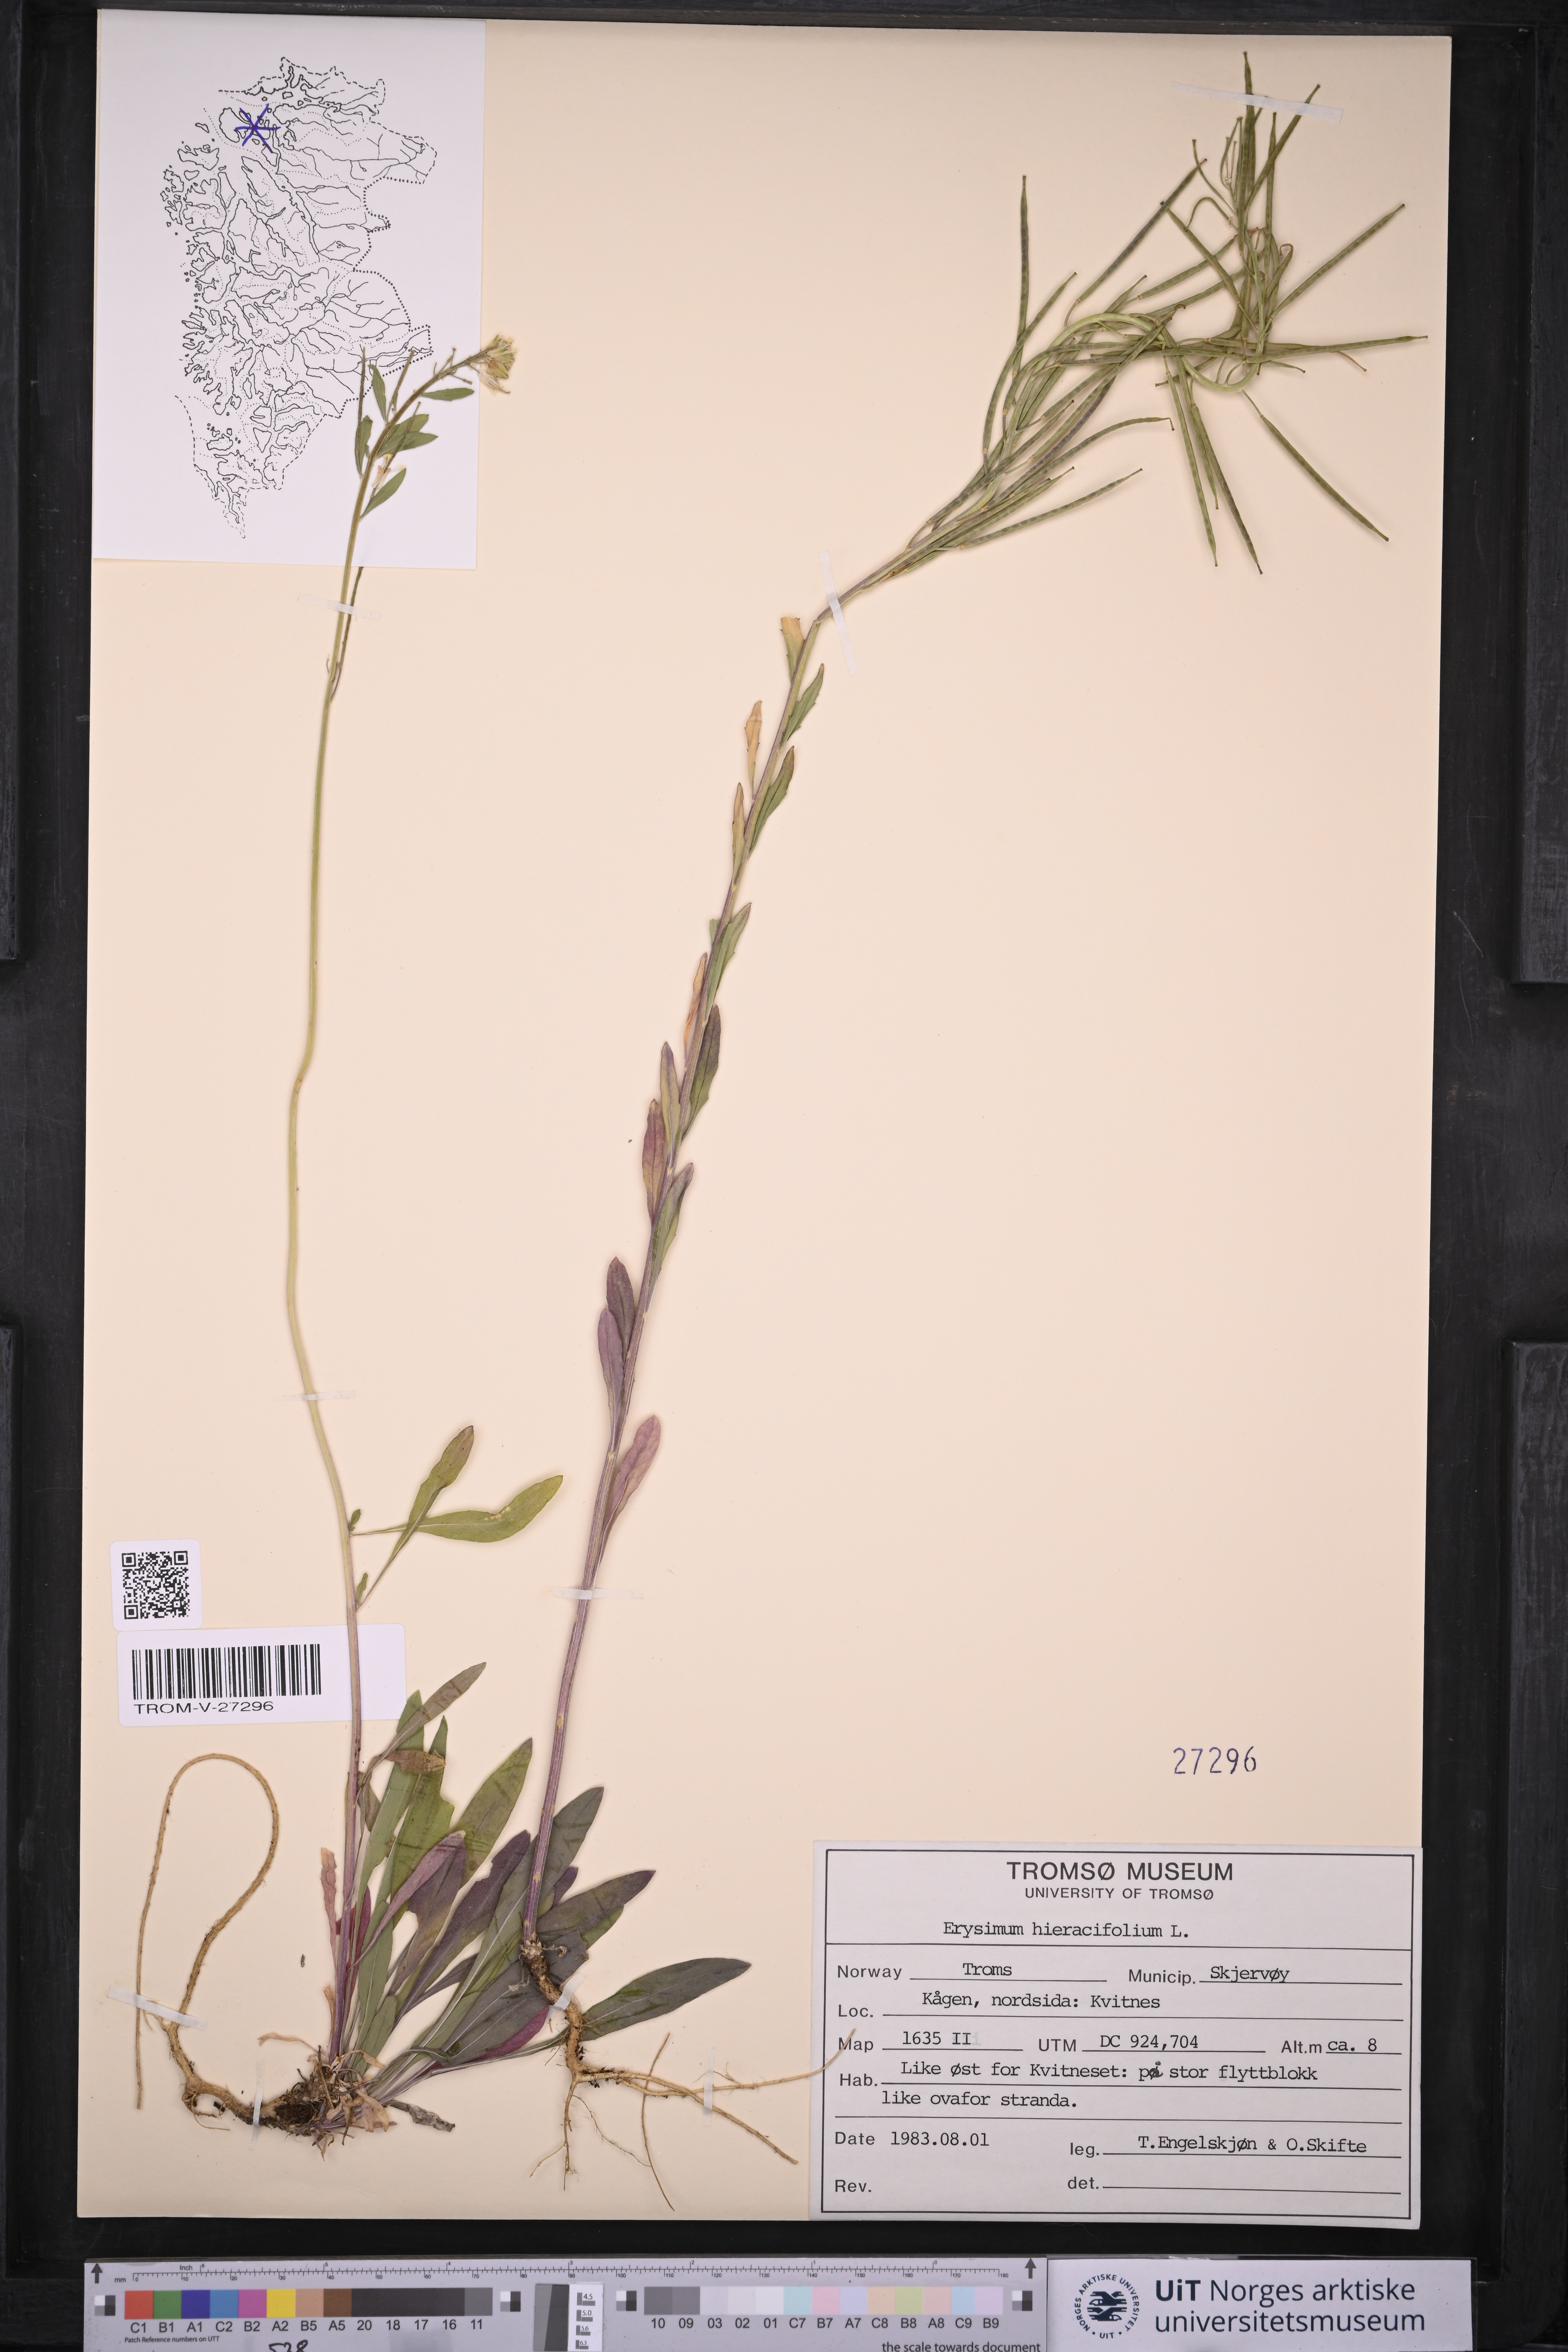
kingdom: Plantae
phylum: Tracheophyta
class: Magnoliopsida
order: Brassicales
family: Brassicaceae
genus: Erysimum
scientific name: Erysimum virgatum
